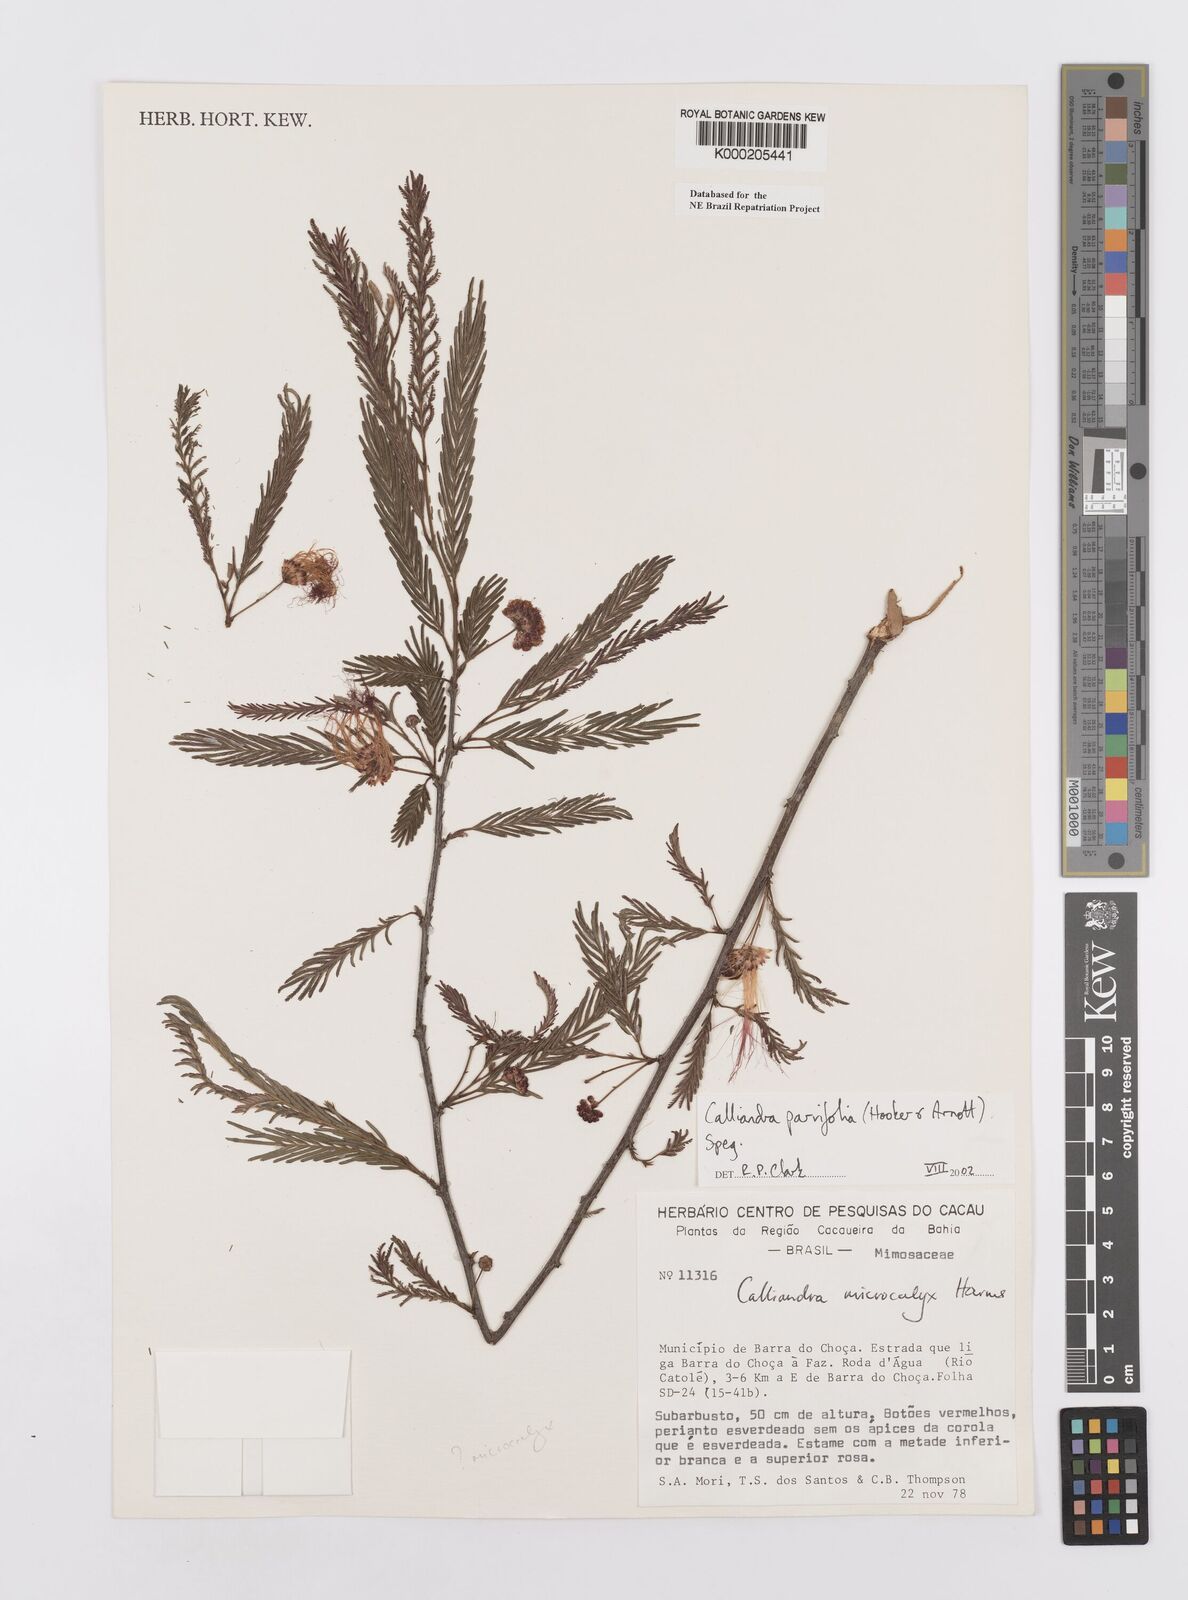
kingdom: Plantae
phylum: Tracheophyta
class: Magnoliopsida
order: Fabales
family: Fabaceae
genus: Calliandra
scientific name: Calliandra parvifolia
